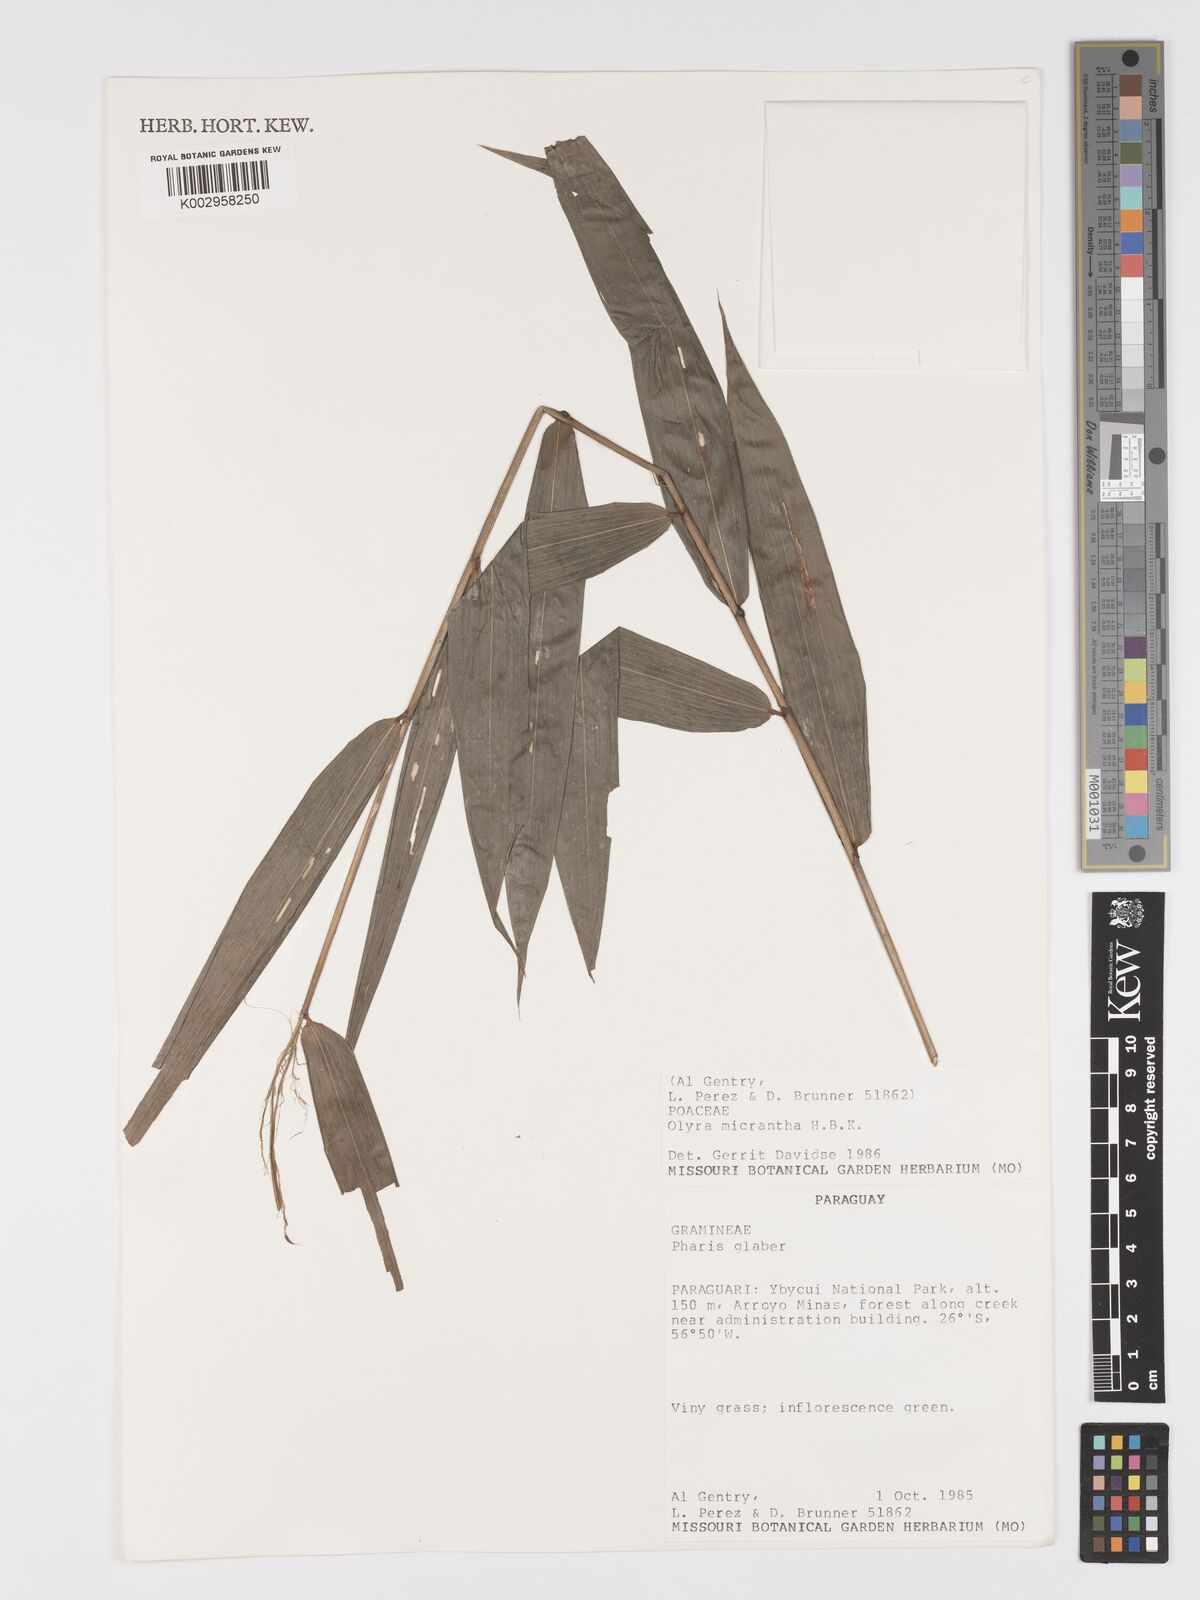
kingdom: Plantae
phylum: Tracheophyta
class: Liliopsida
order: Poales
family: Poaceae
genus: Taquara
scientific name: Taquara micrantha
